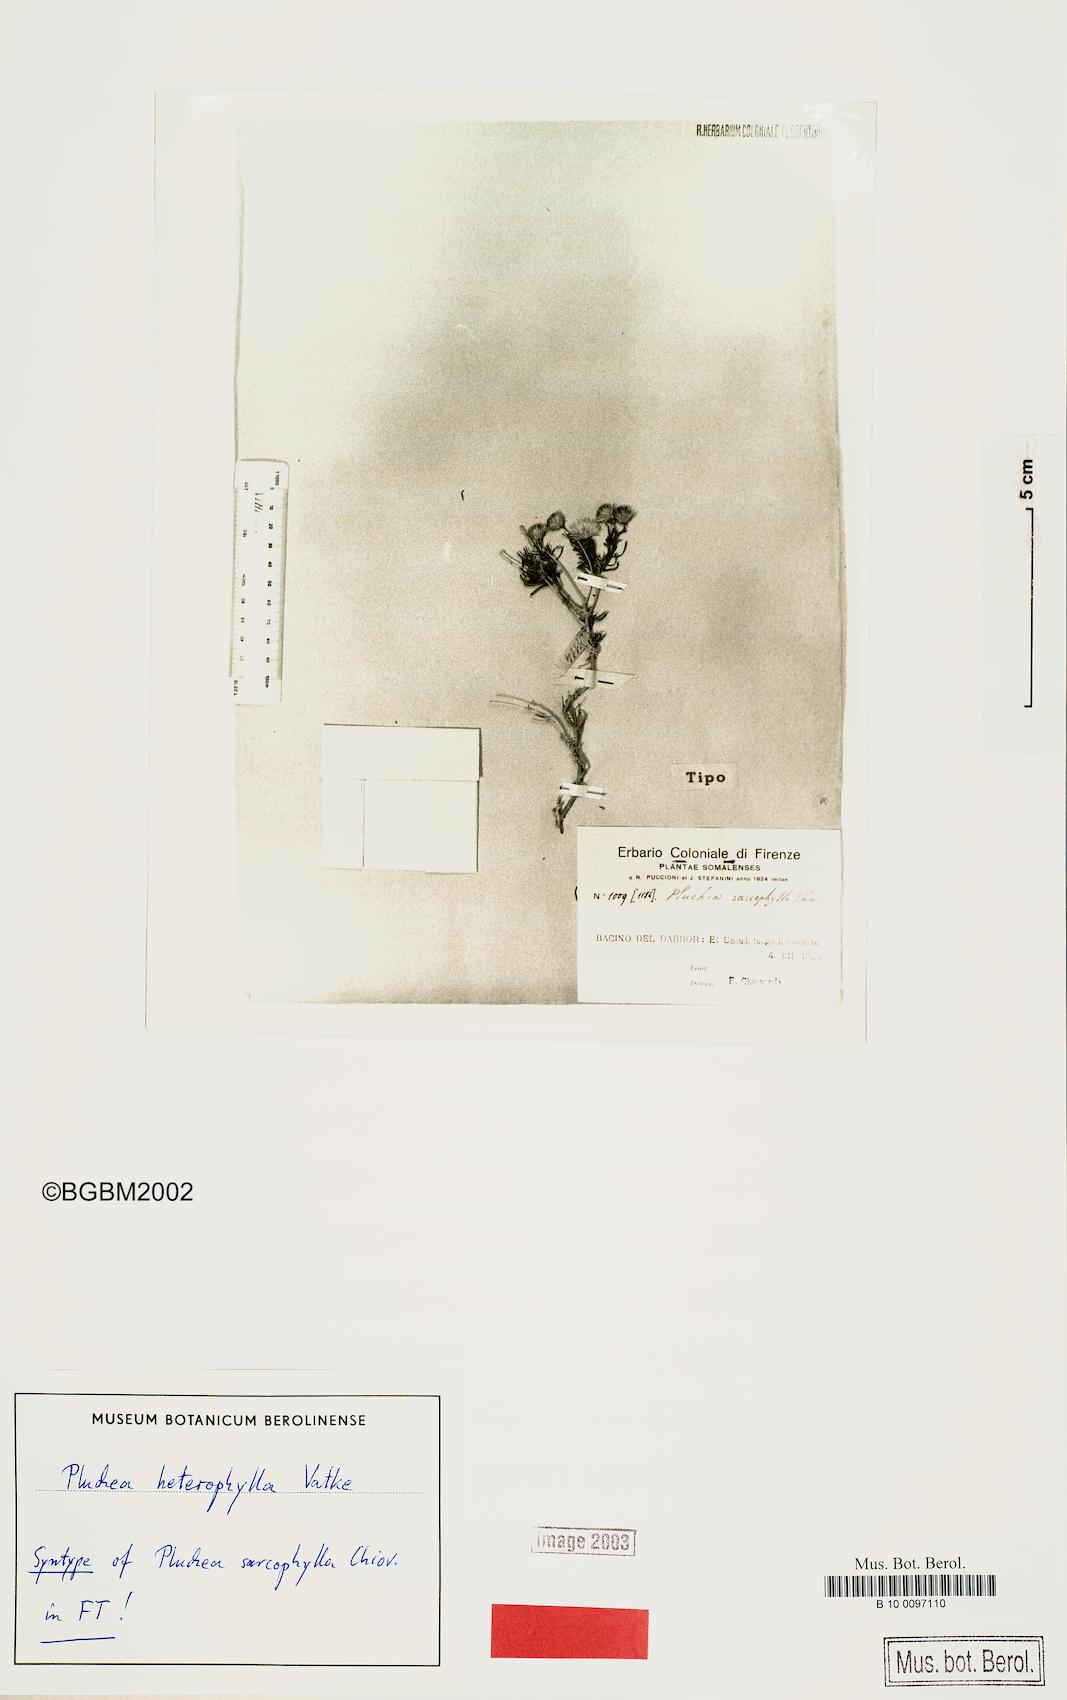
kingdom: Plantae
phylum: Tracheophyta
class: Magnoliopsida
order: Asterales
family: Asteraceae
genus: Pluchea
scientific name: Pluchea heterophylla
